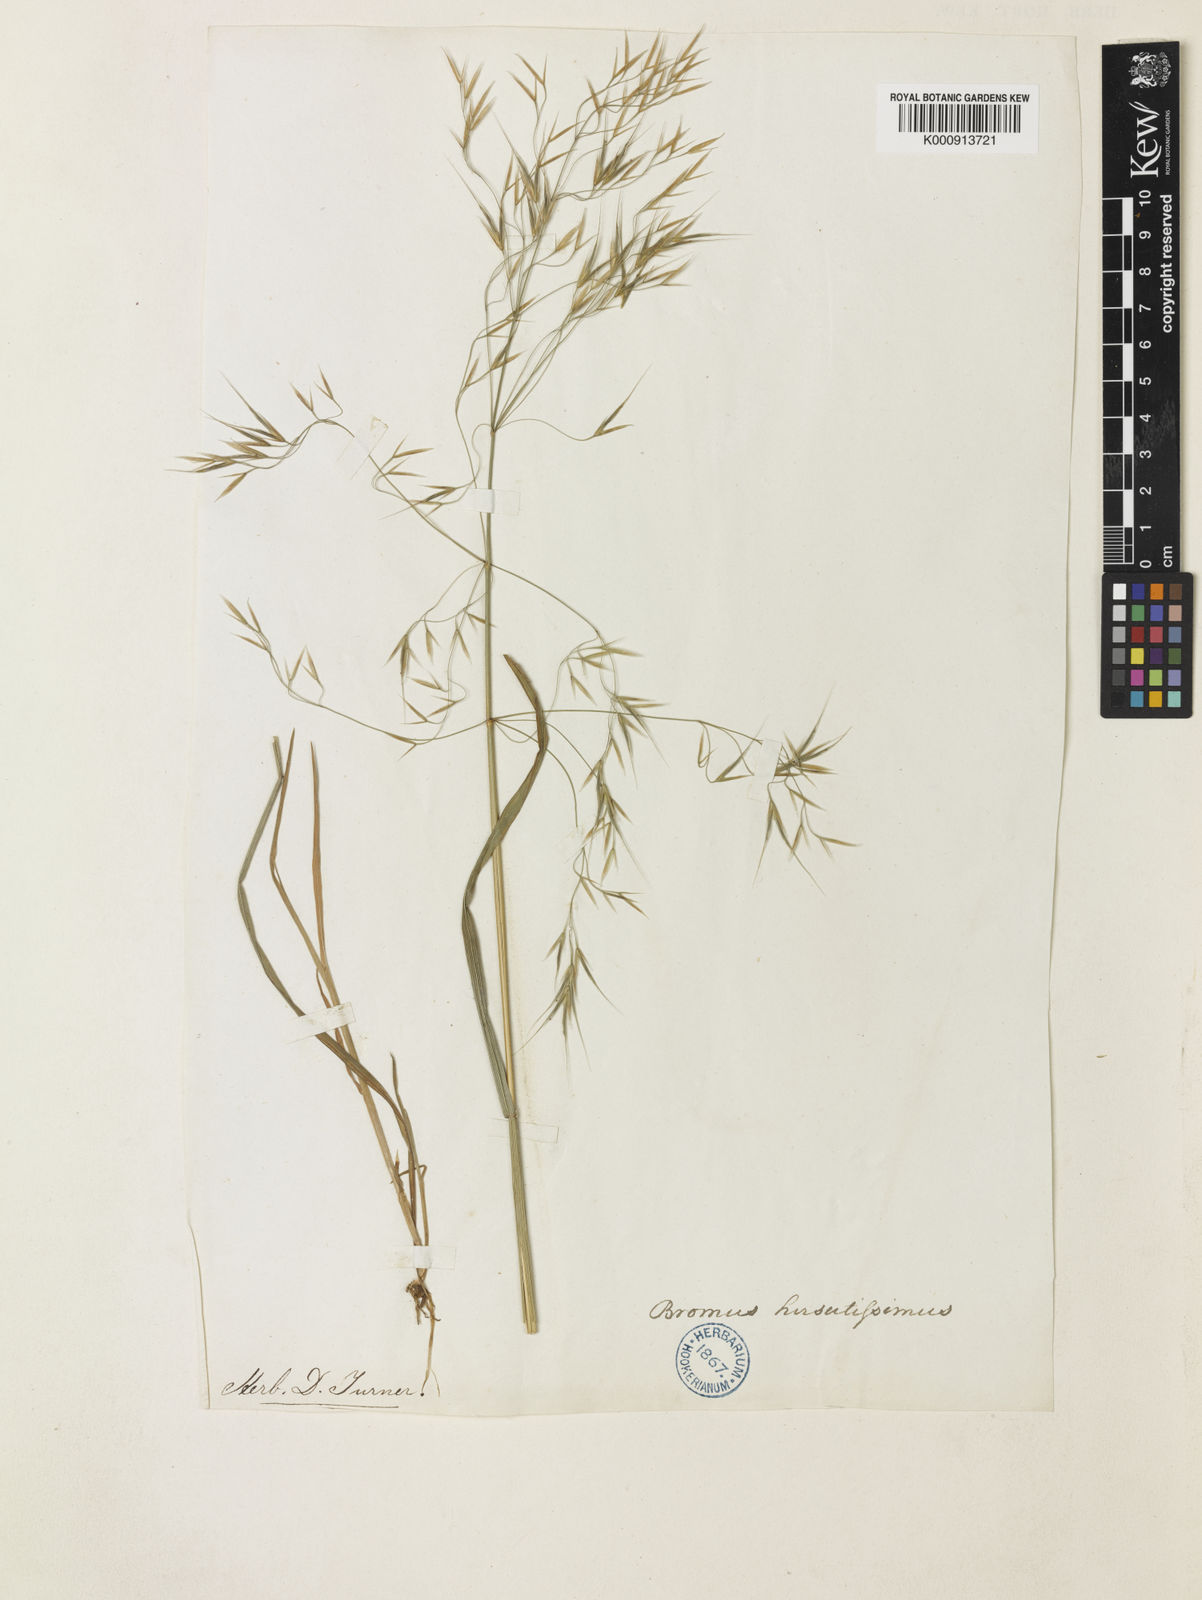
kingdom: Plantae
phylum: Tracheophyta
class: Liliopsida
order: Poales
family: Poaceae
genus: Bromus
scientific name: Bromus
